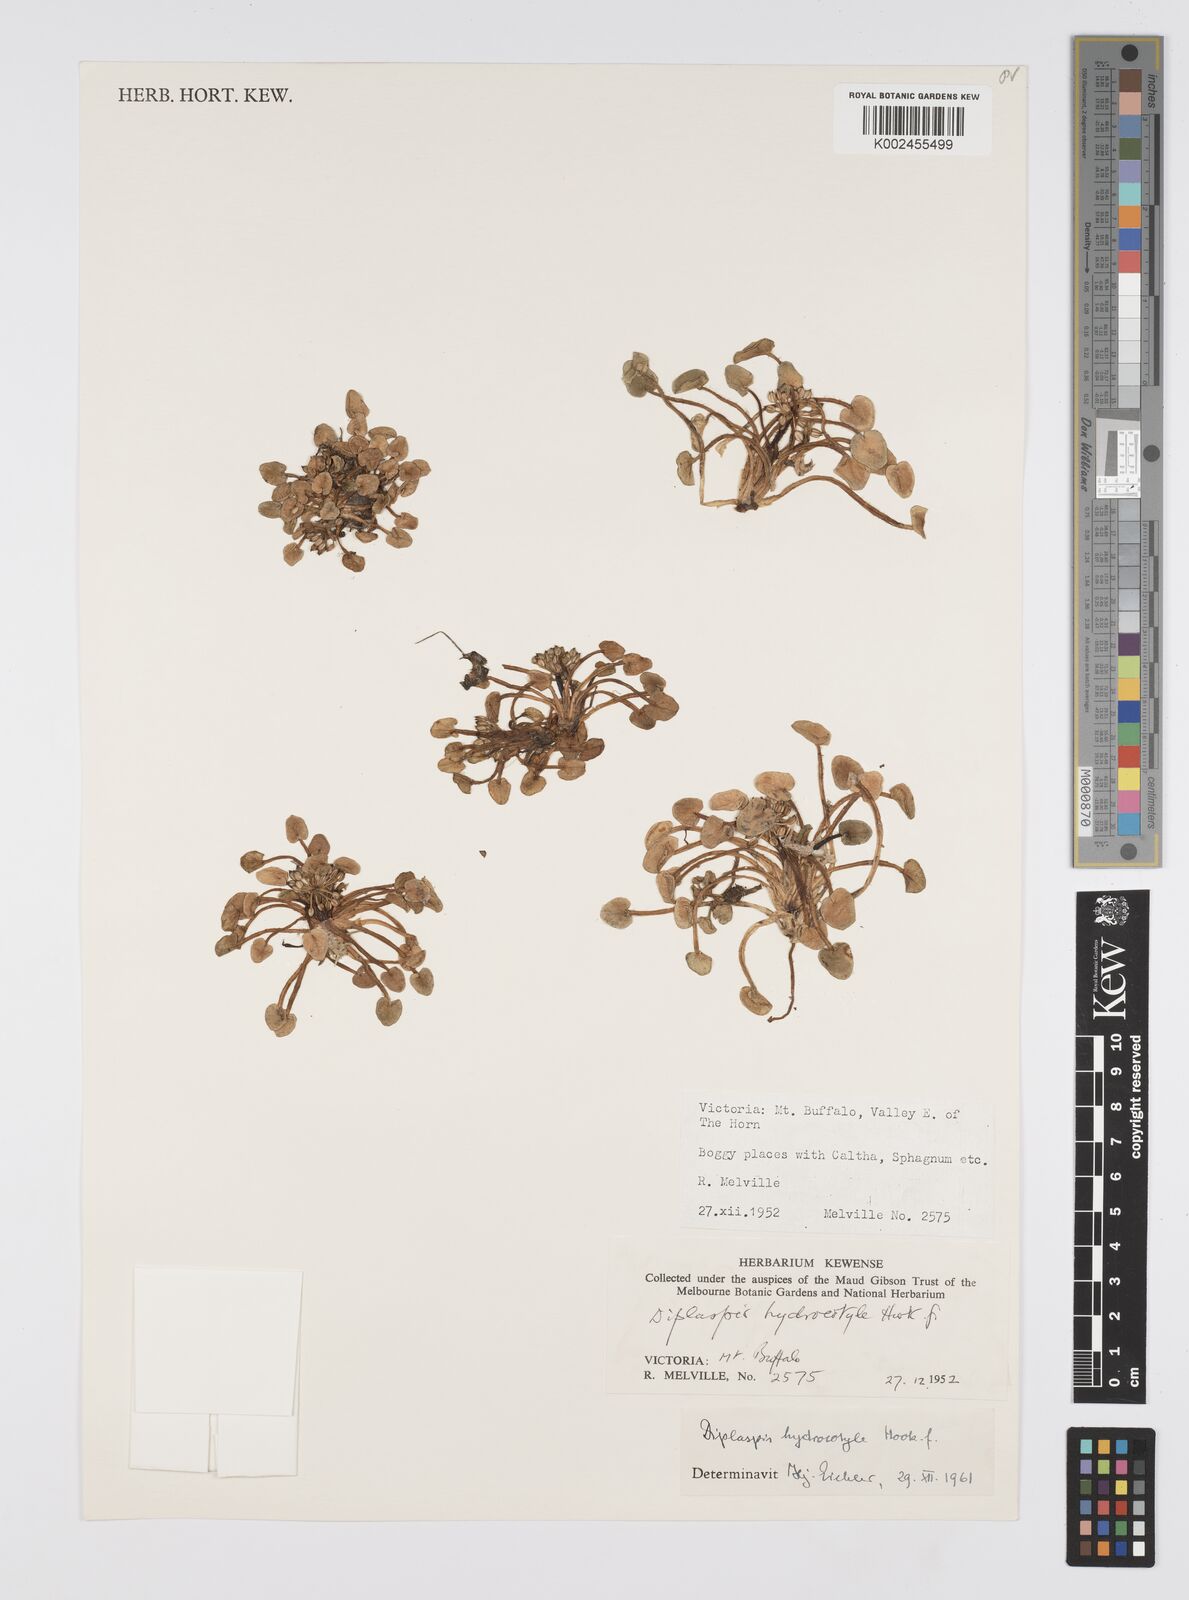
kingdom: Plantae
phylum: Tracheophyta
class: Magnoliopsida
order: Apiales
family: Apiaceae
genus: Diplaspis
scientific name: Diplaspis hydrocotylea
